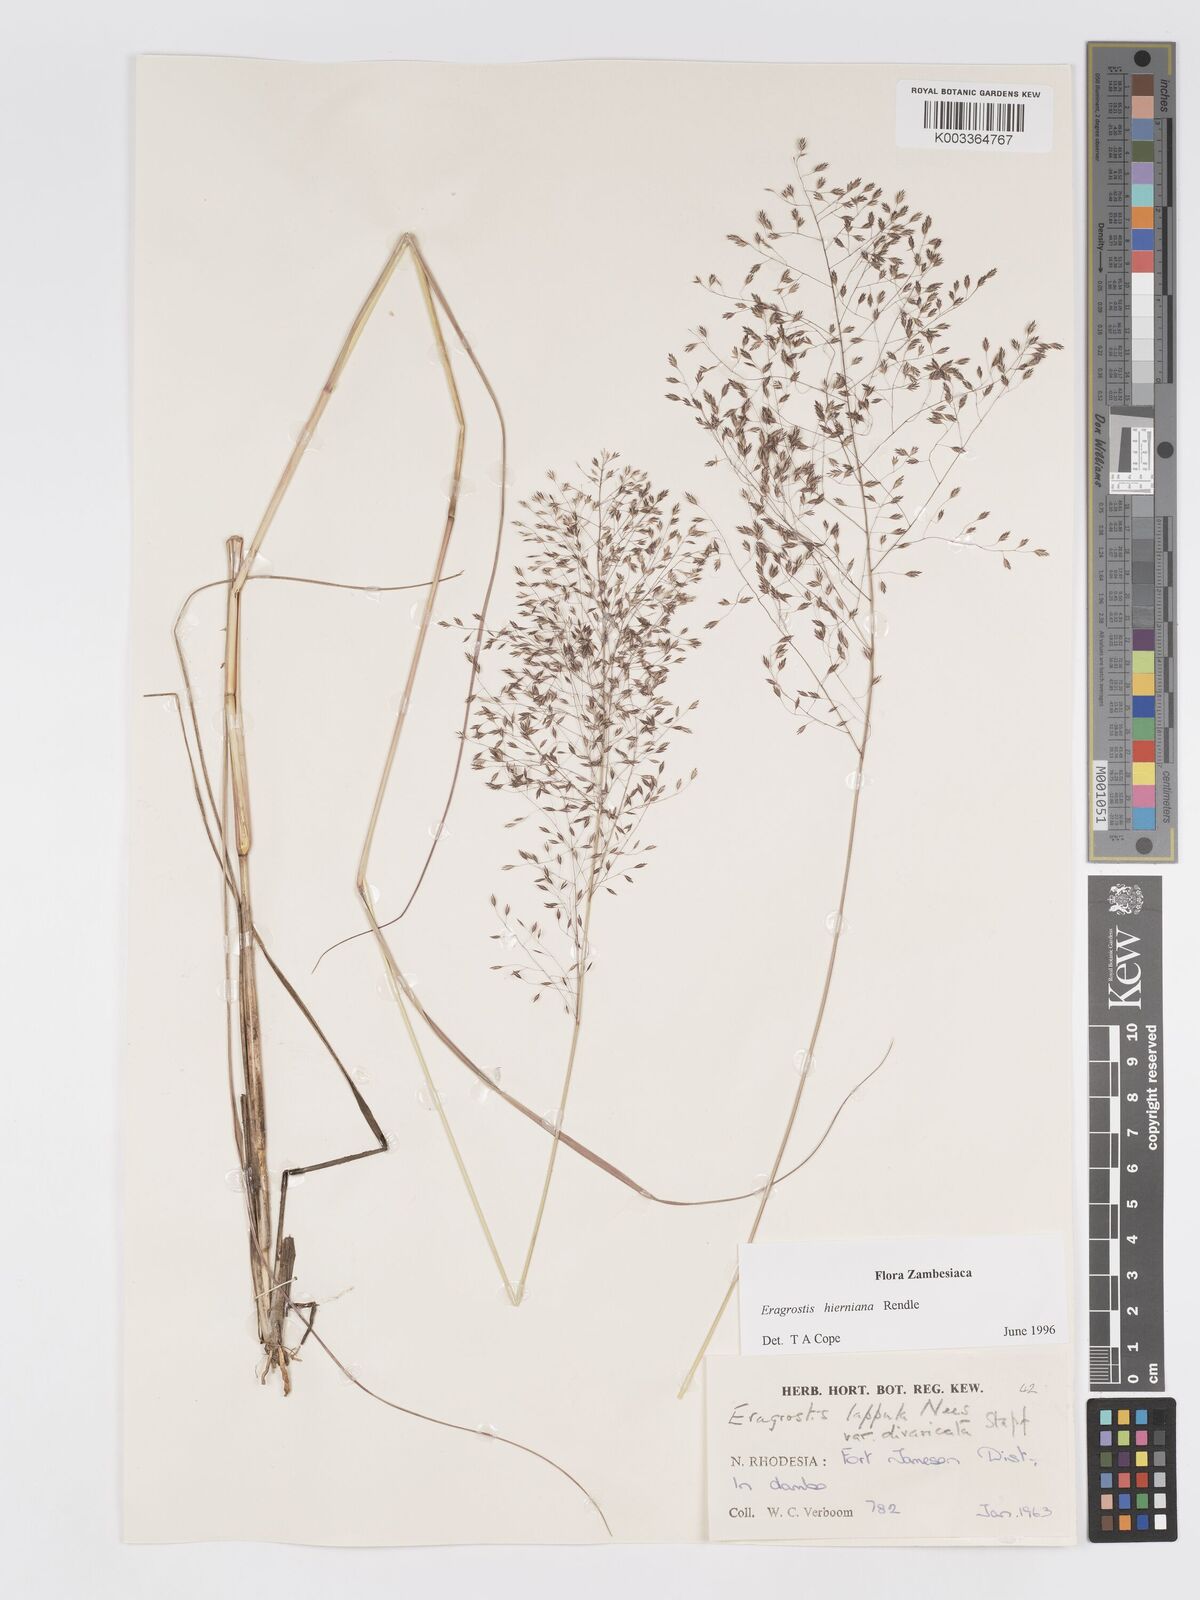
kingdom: Plantae
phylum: Tracheophyta
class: Liliopsida
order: Poales
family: Poaceae
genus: Eragrostis
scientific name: Eragrostis hierniana
